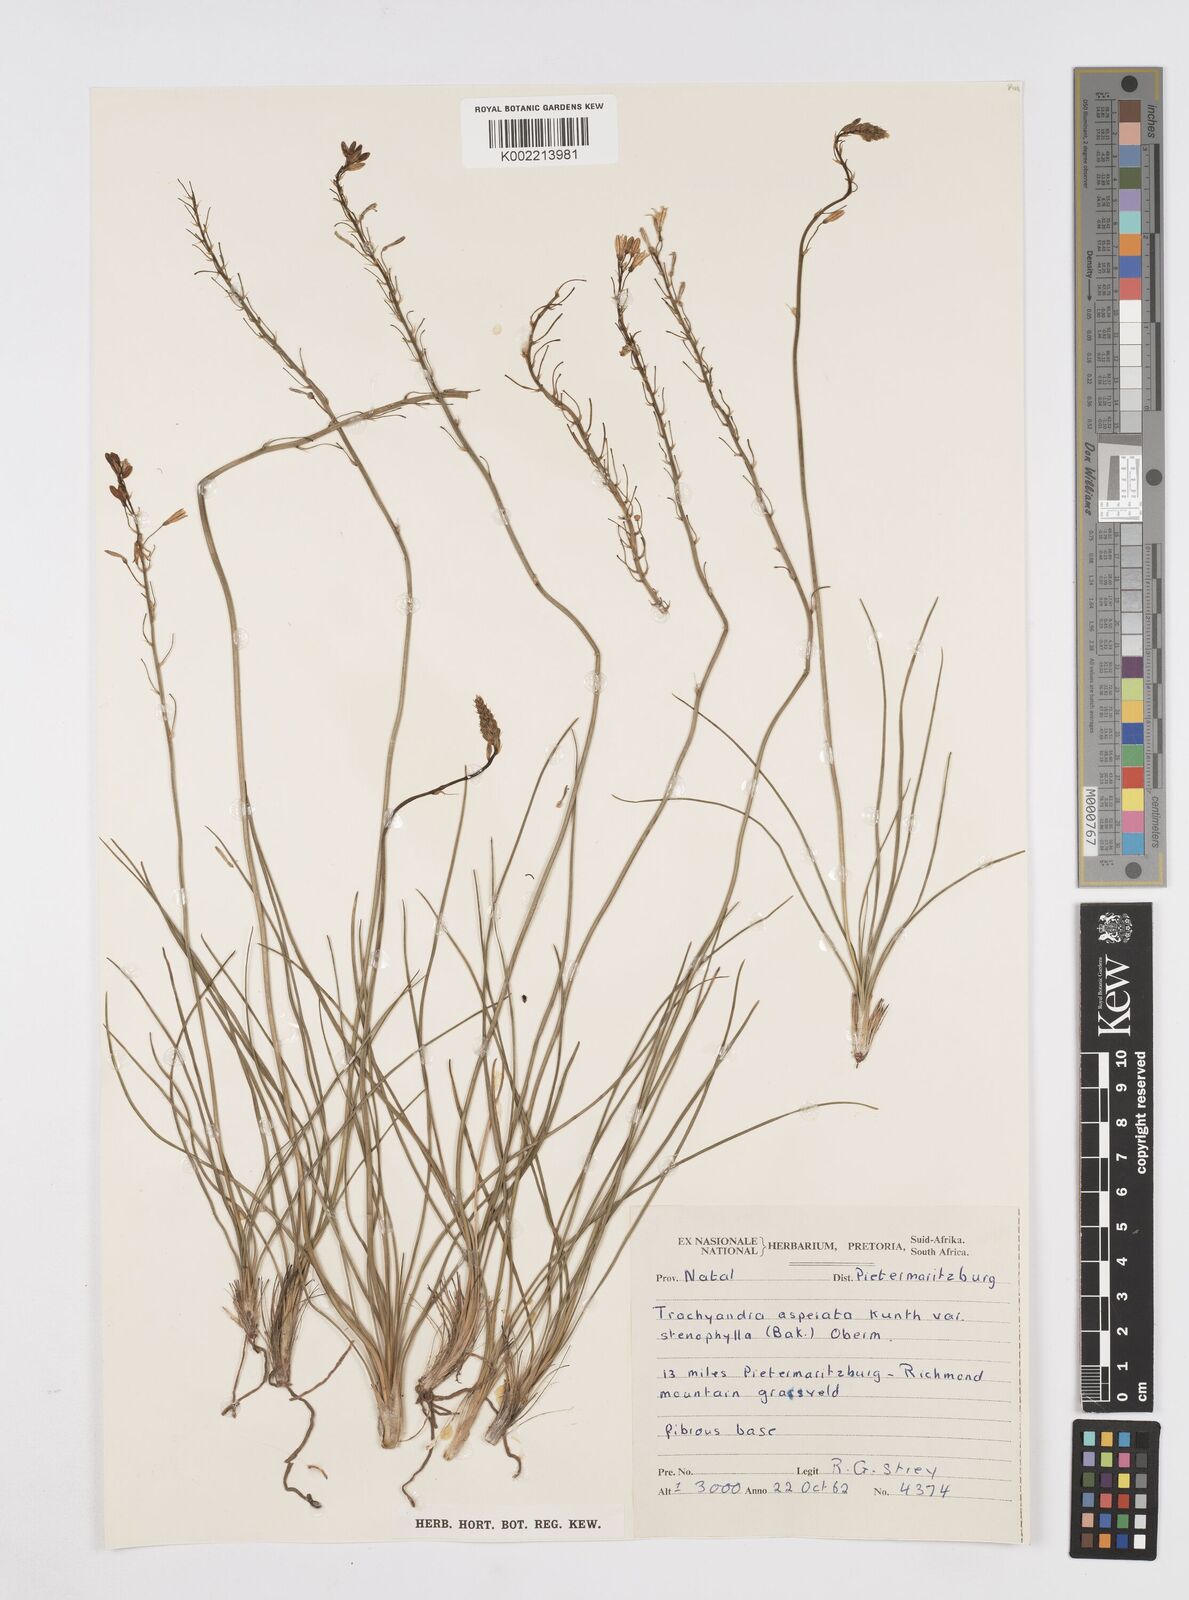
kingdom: Plantae
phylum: Tracheophyta
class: Liliopsida
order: Asparagales
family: Asphodelaceae
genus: Trachyandra
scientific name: Trachyandra asperata
